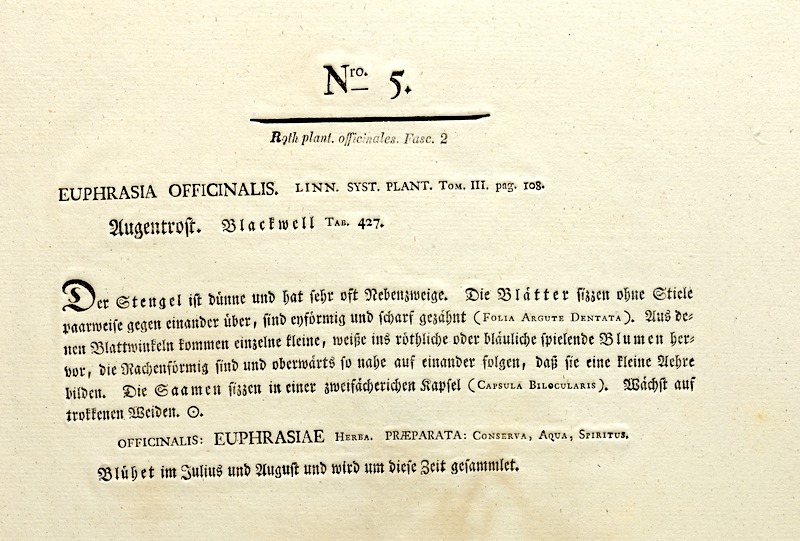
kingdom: Plantae
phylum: Tracheophyta
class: Magnoliopsida
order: Lamiales
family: Orobanchaceae
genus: Euphrasia
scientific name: Euphrasia stricta
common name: Drug eyebright
